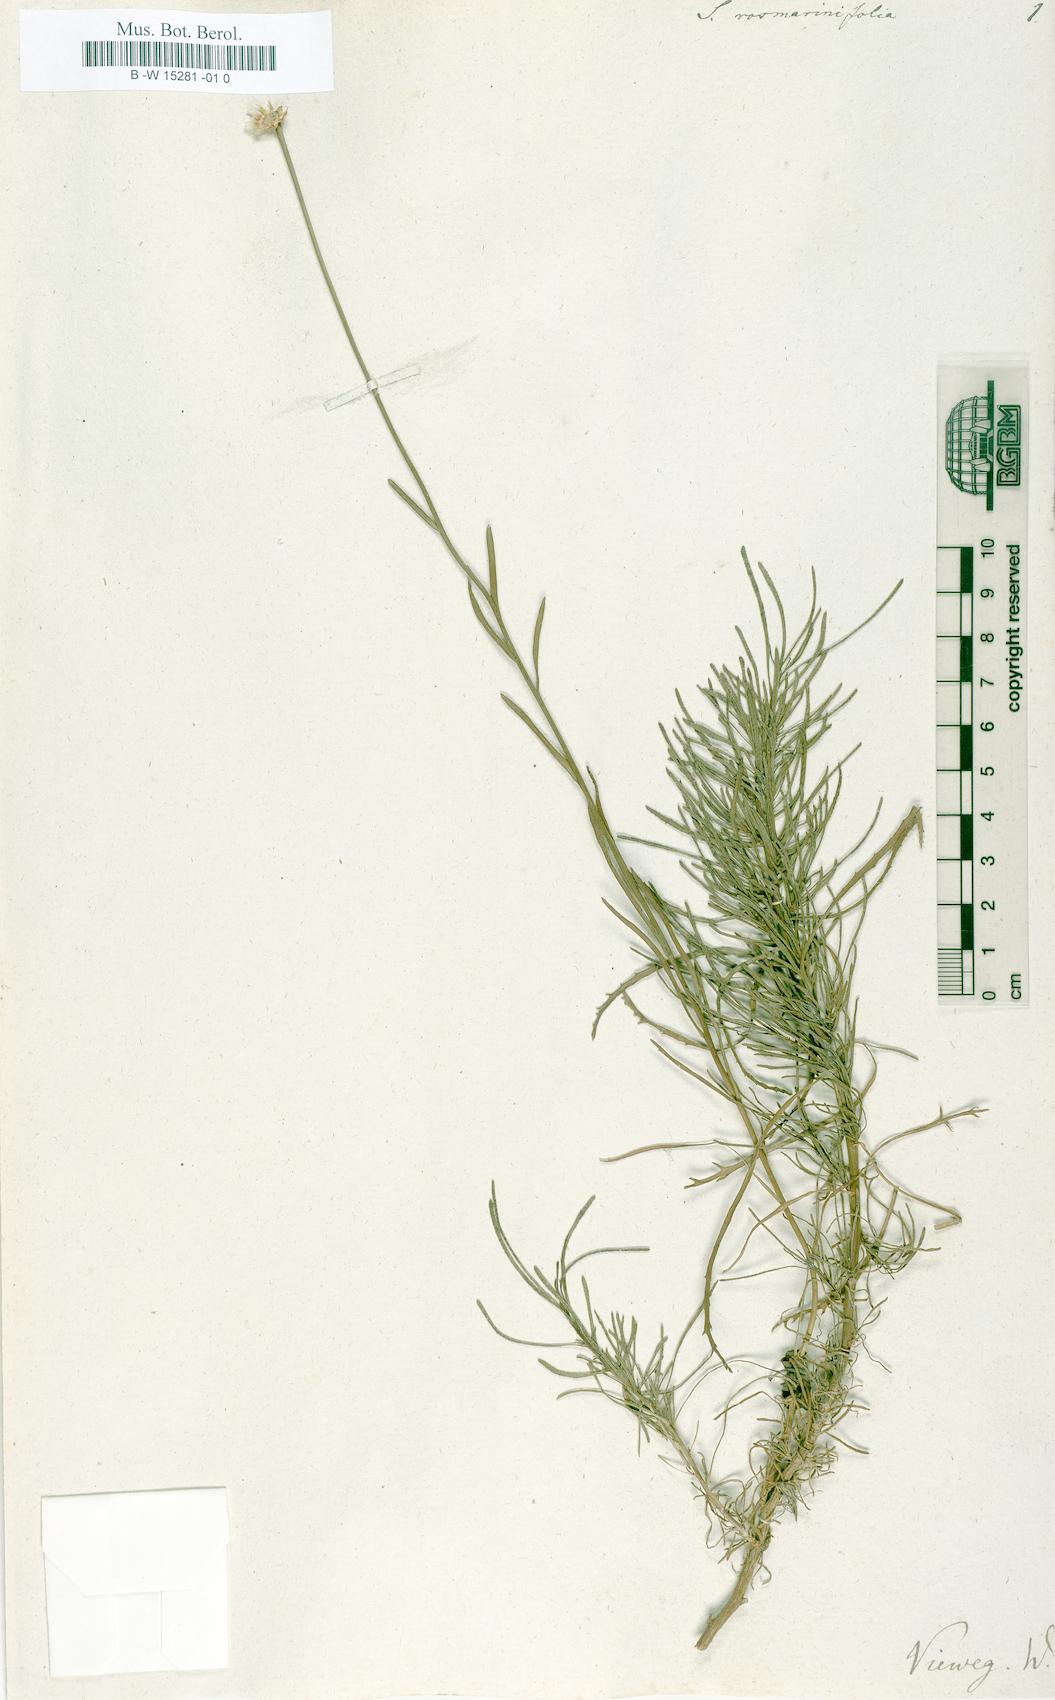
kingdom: Plantae
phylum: Tracheophyta
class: Magnoliopsida
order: Asterales
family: Asteraceae
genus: Santolina
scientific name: Santolina rosmarinifolia
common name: Holy-flax
